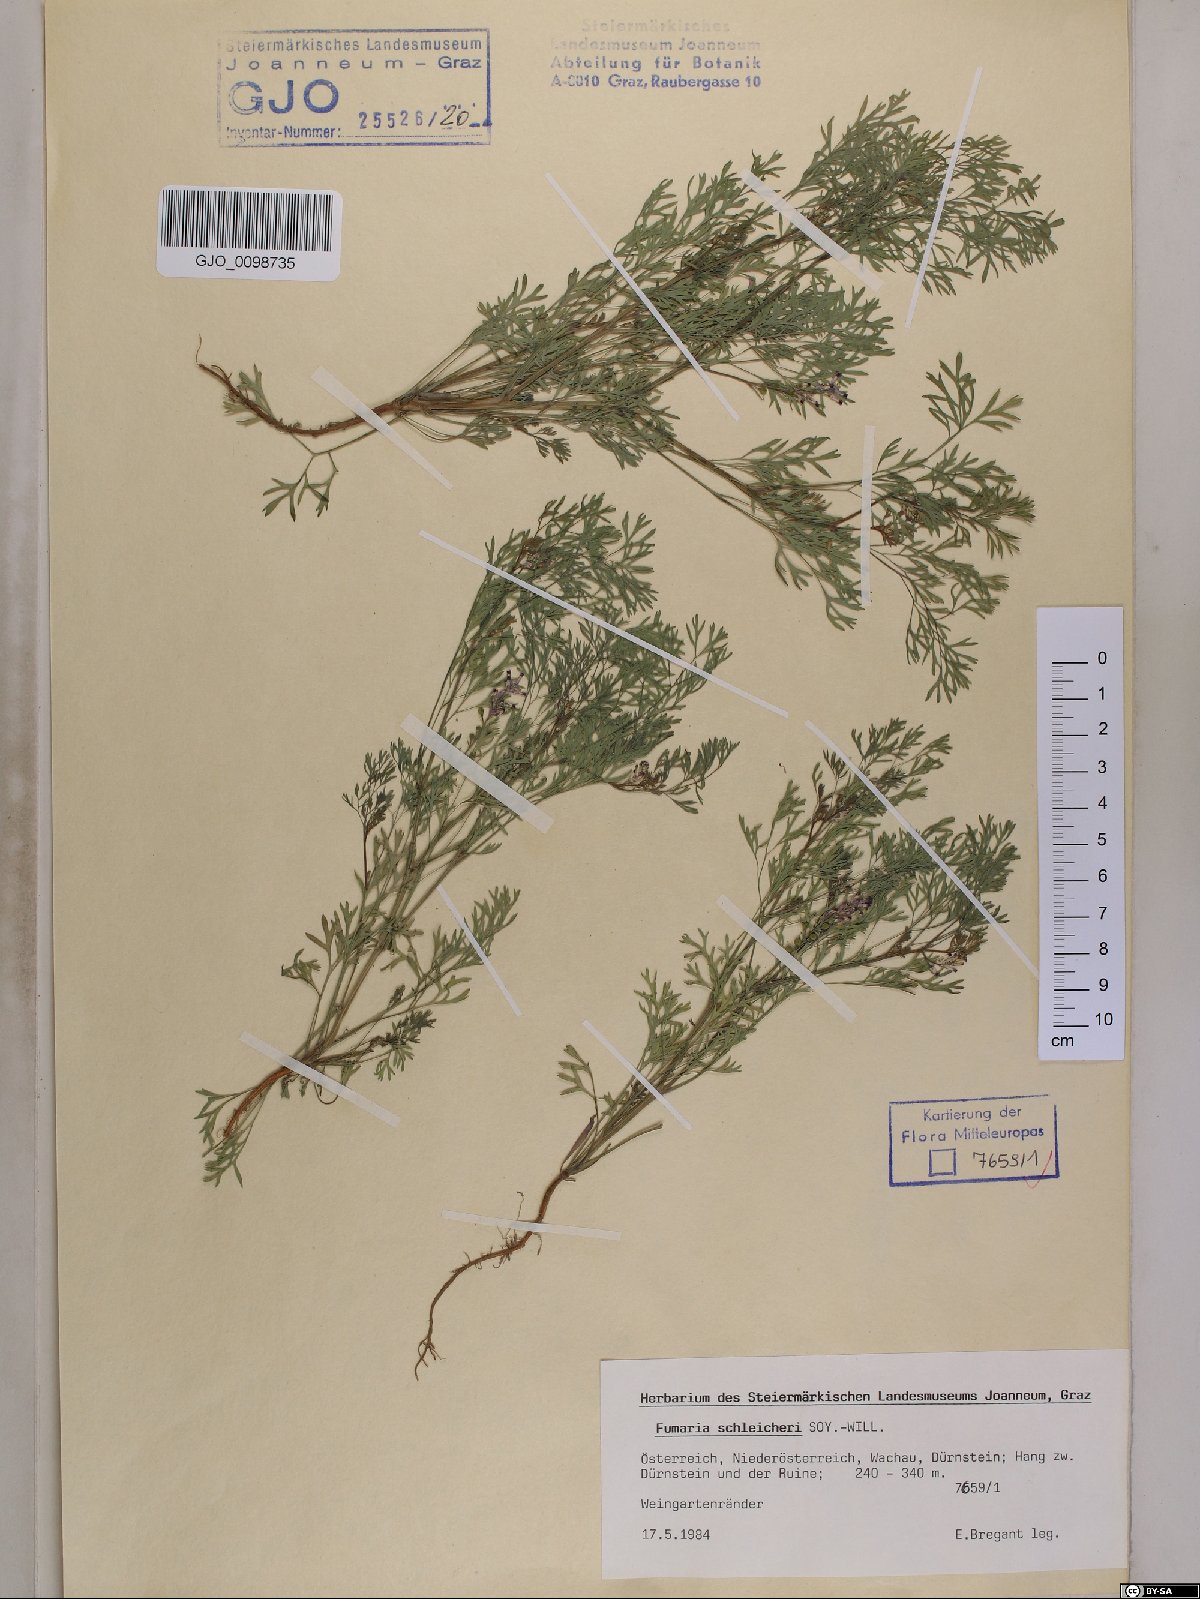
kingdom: Plantae
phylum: Tracheophyta
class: Magnoliopsida
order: Ranunculales
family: Papaveraceae
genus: Fumaria
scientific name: Fumaria schleicheri
